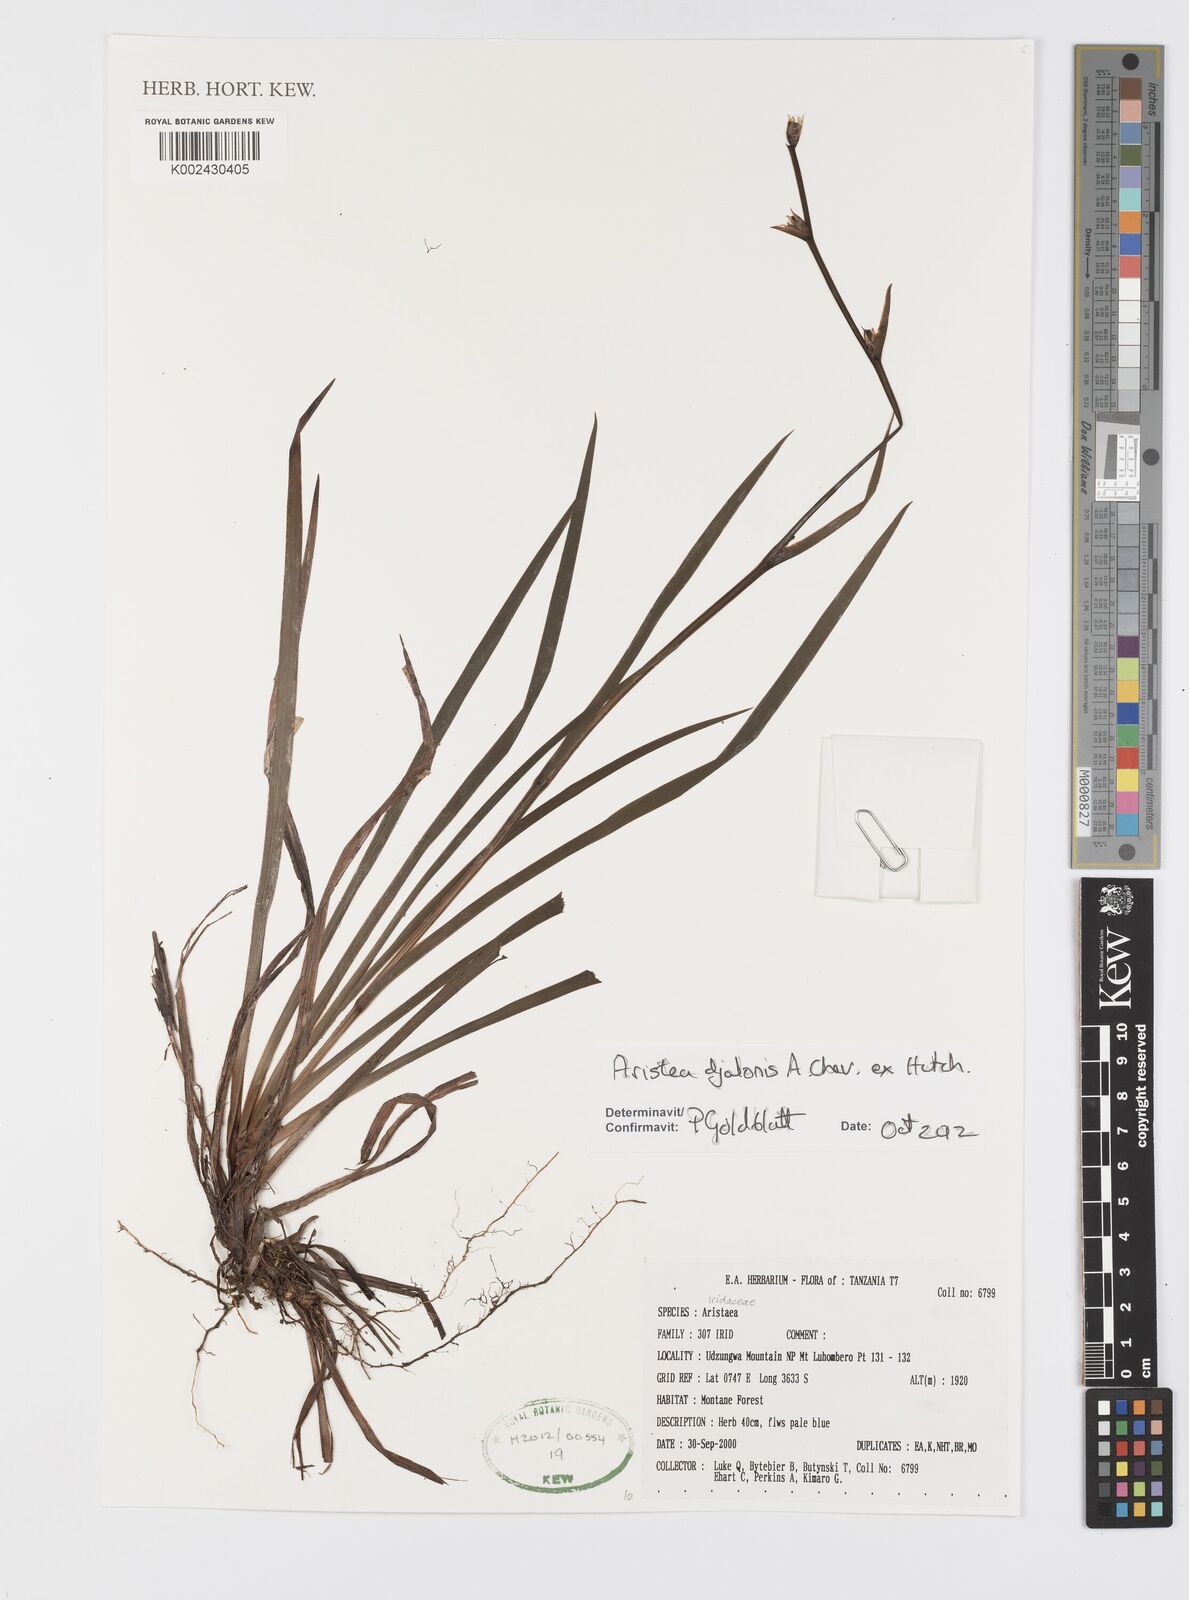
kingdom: Plantae
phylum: Tracheophyta
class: Liliopsida
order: Asparagales
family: Iridaceae
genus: Aristea
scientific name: Aristea djalonis
